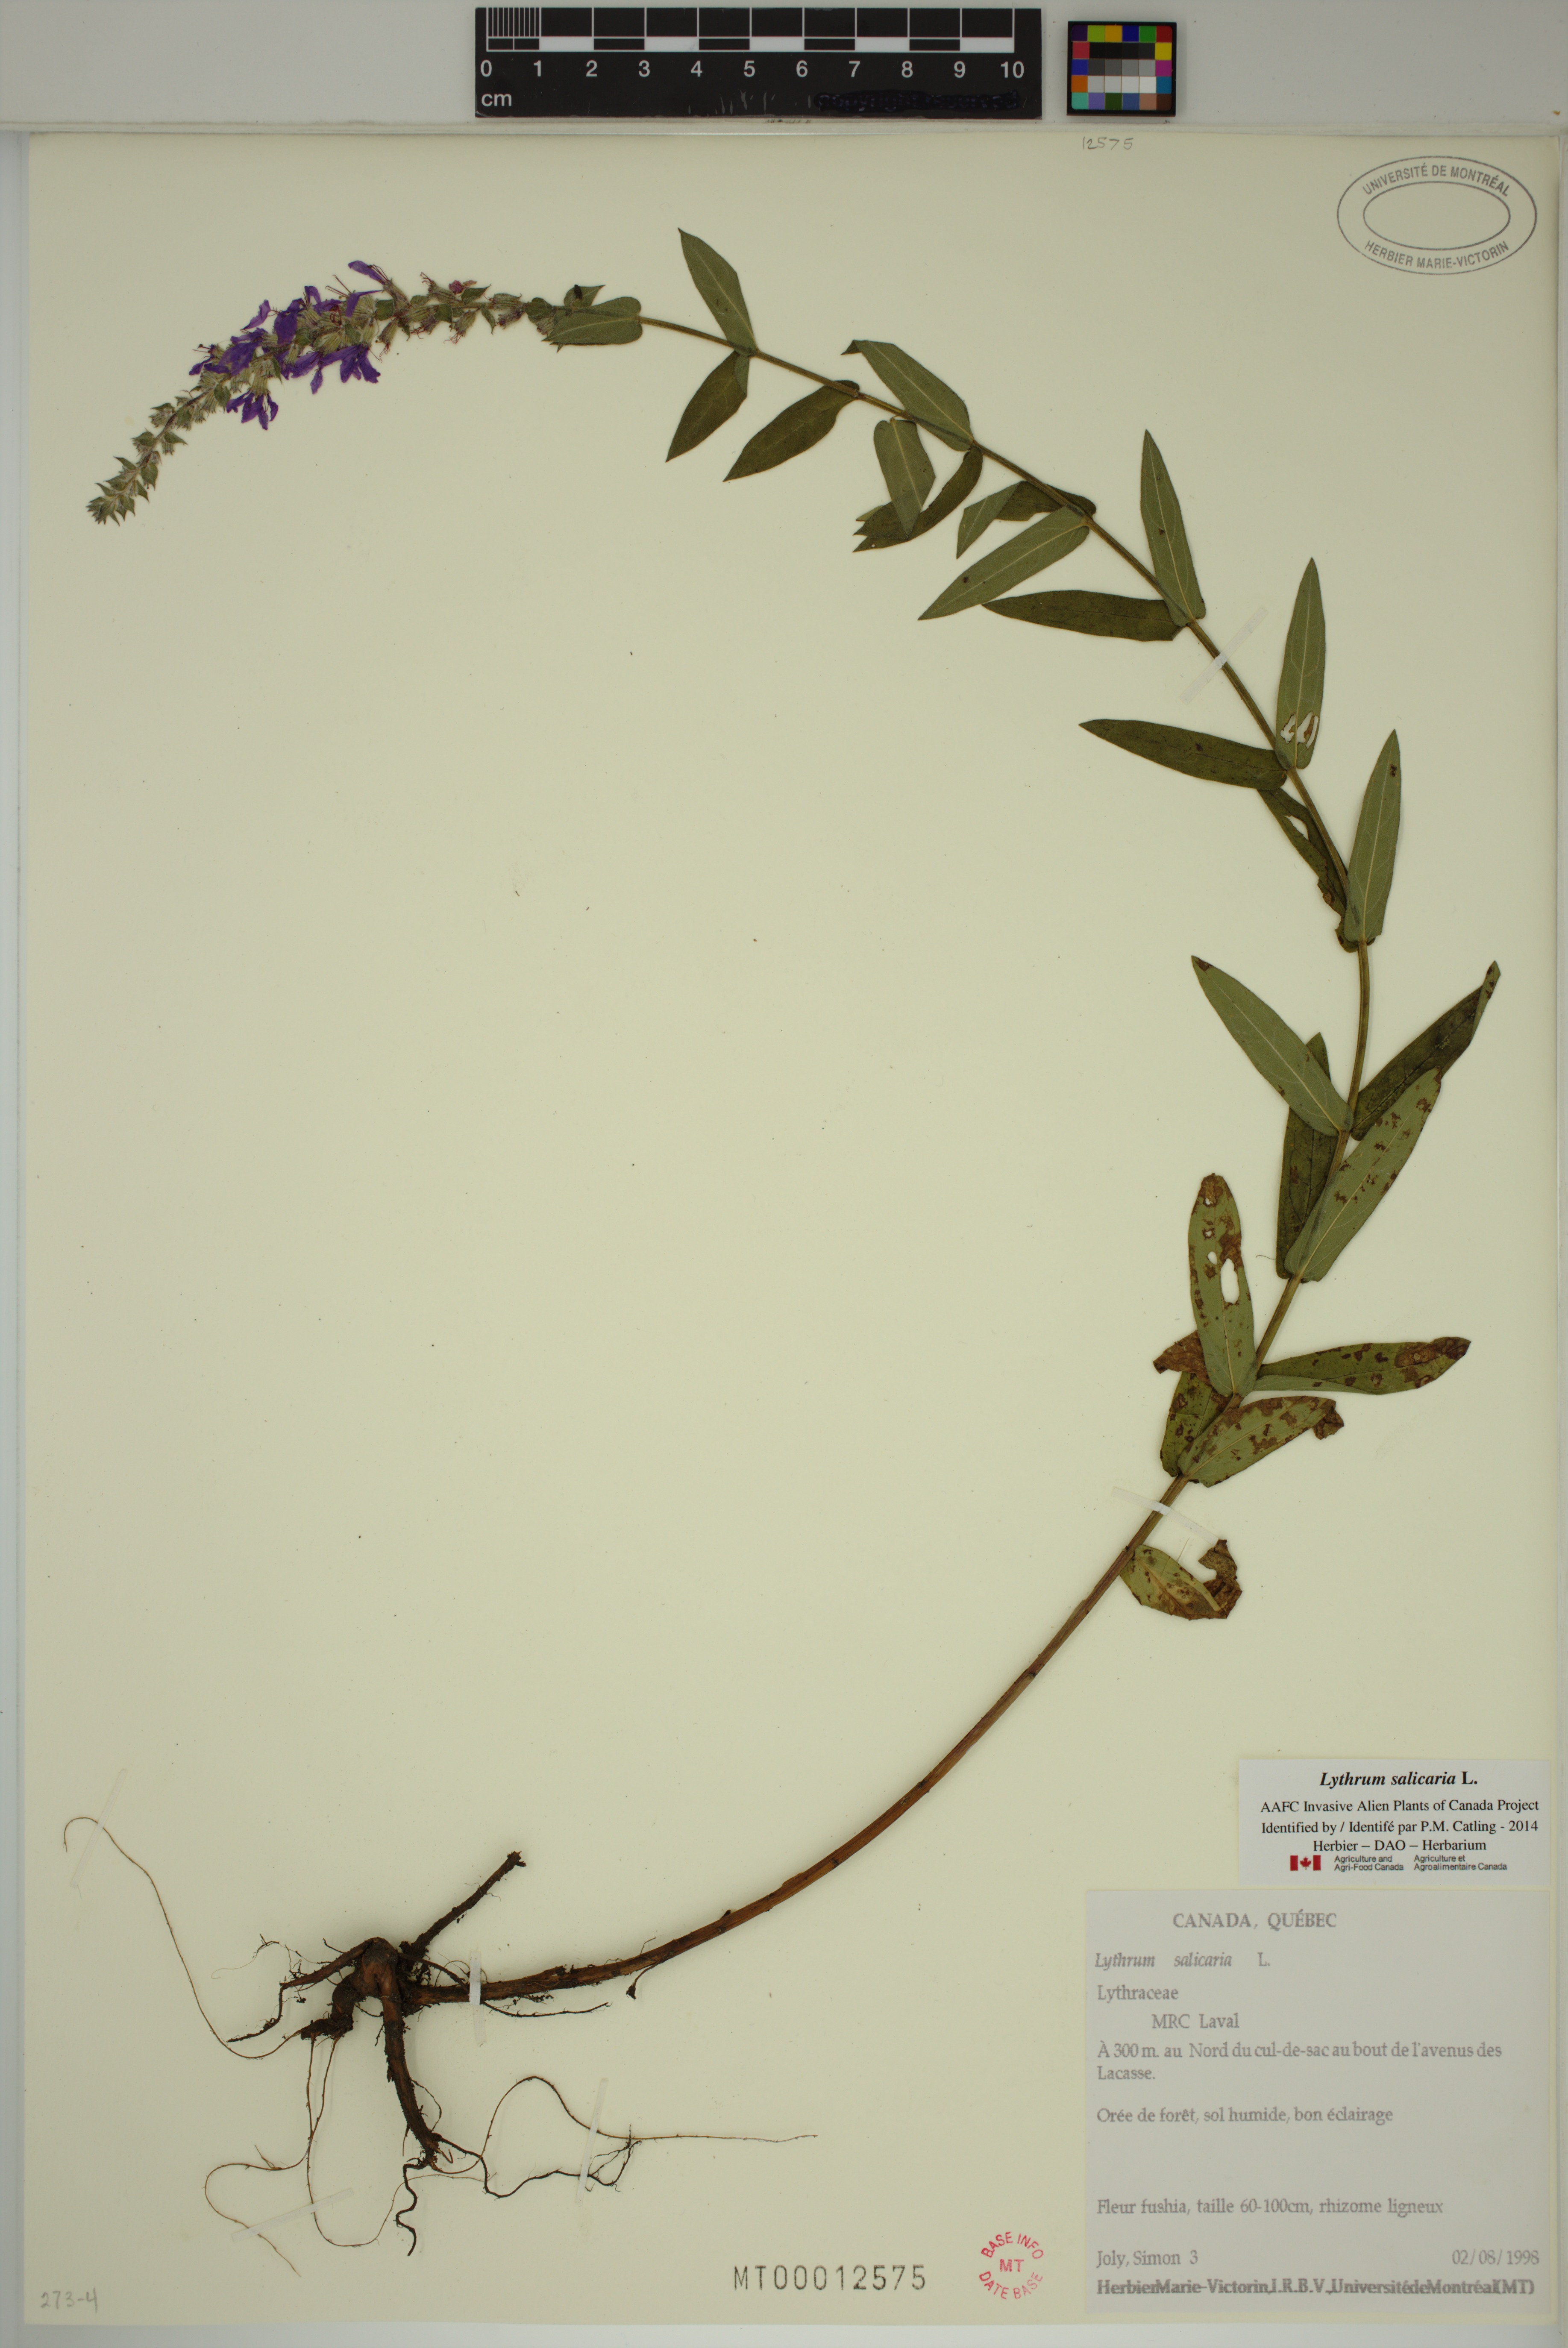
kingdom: Plantae
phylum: Tracheophyta
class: Magnoliopsida
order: Myrtales
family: Lythraceae
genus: Lythrum
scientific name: Lythrum salicaria
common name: Purple loosestrife
